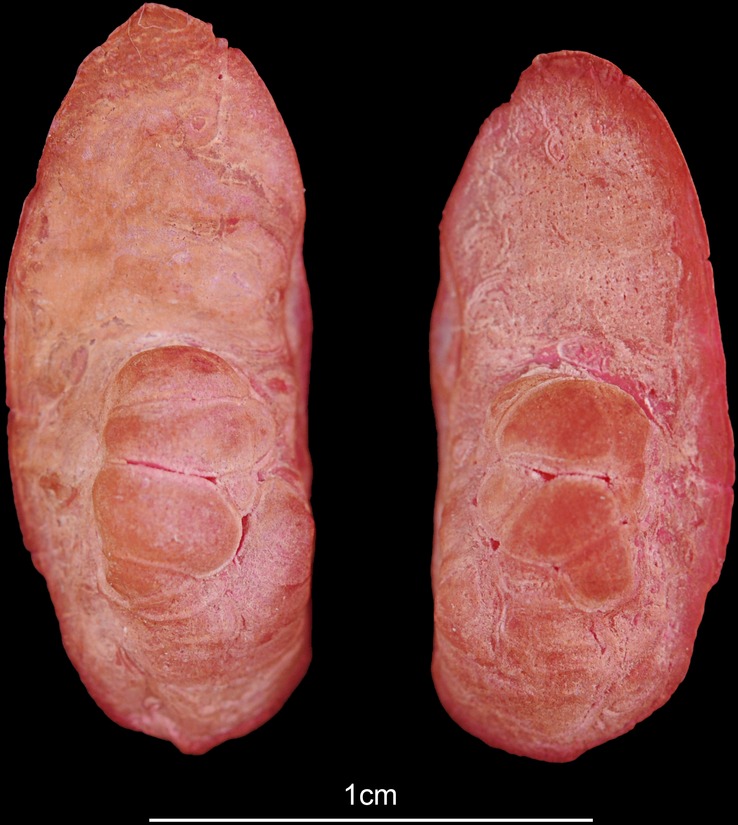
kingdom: Animalia
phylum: Chordata
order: Perciformes
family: Sciaenidae
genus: Atractoscion
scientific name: Atractoscion aequidens
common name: Geelbeck croaker
